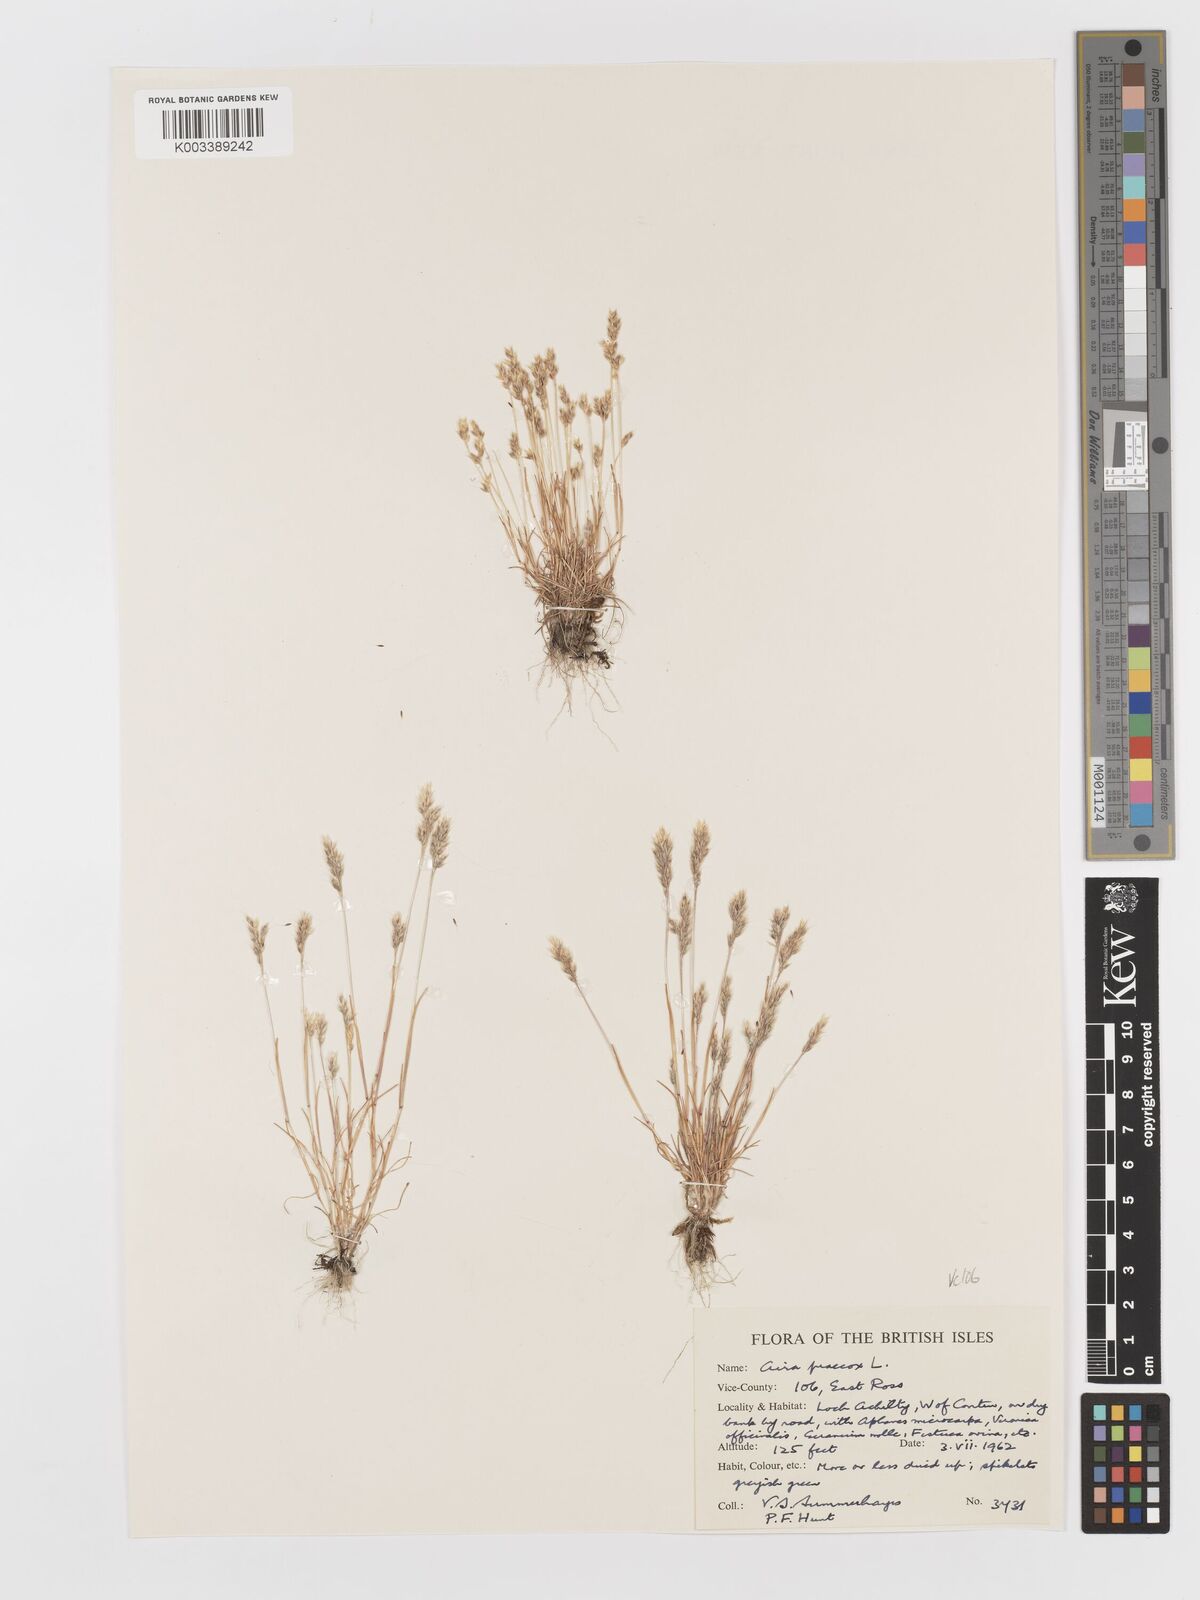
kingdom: Plantae
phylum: Tracheophyta
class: Liliopsida
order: Poales
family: Poaceae
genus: Aira
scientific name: Aira praecox
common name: Early hair-grass
